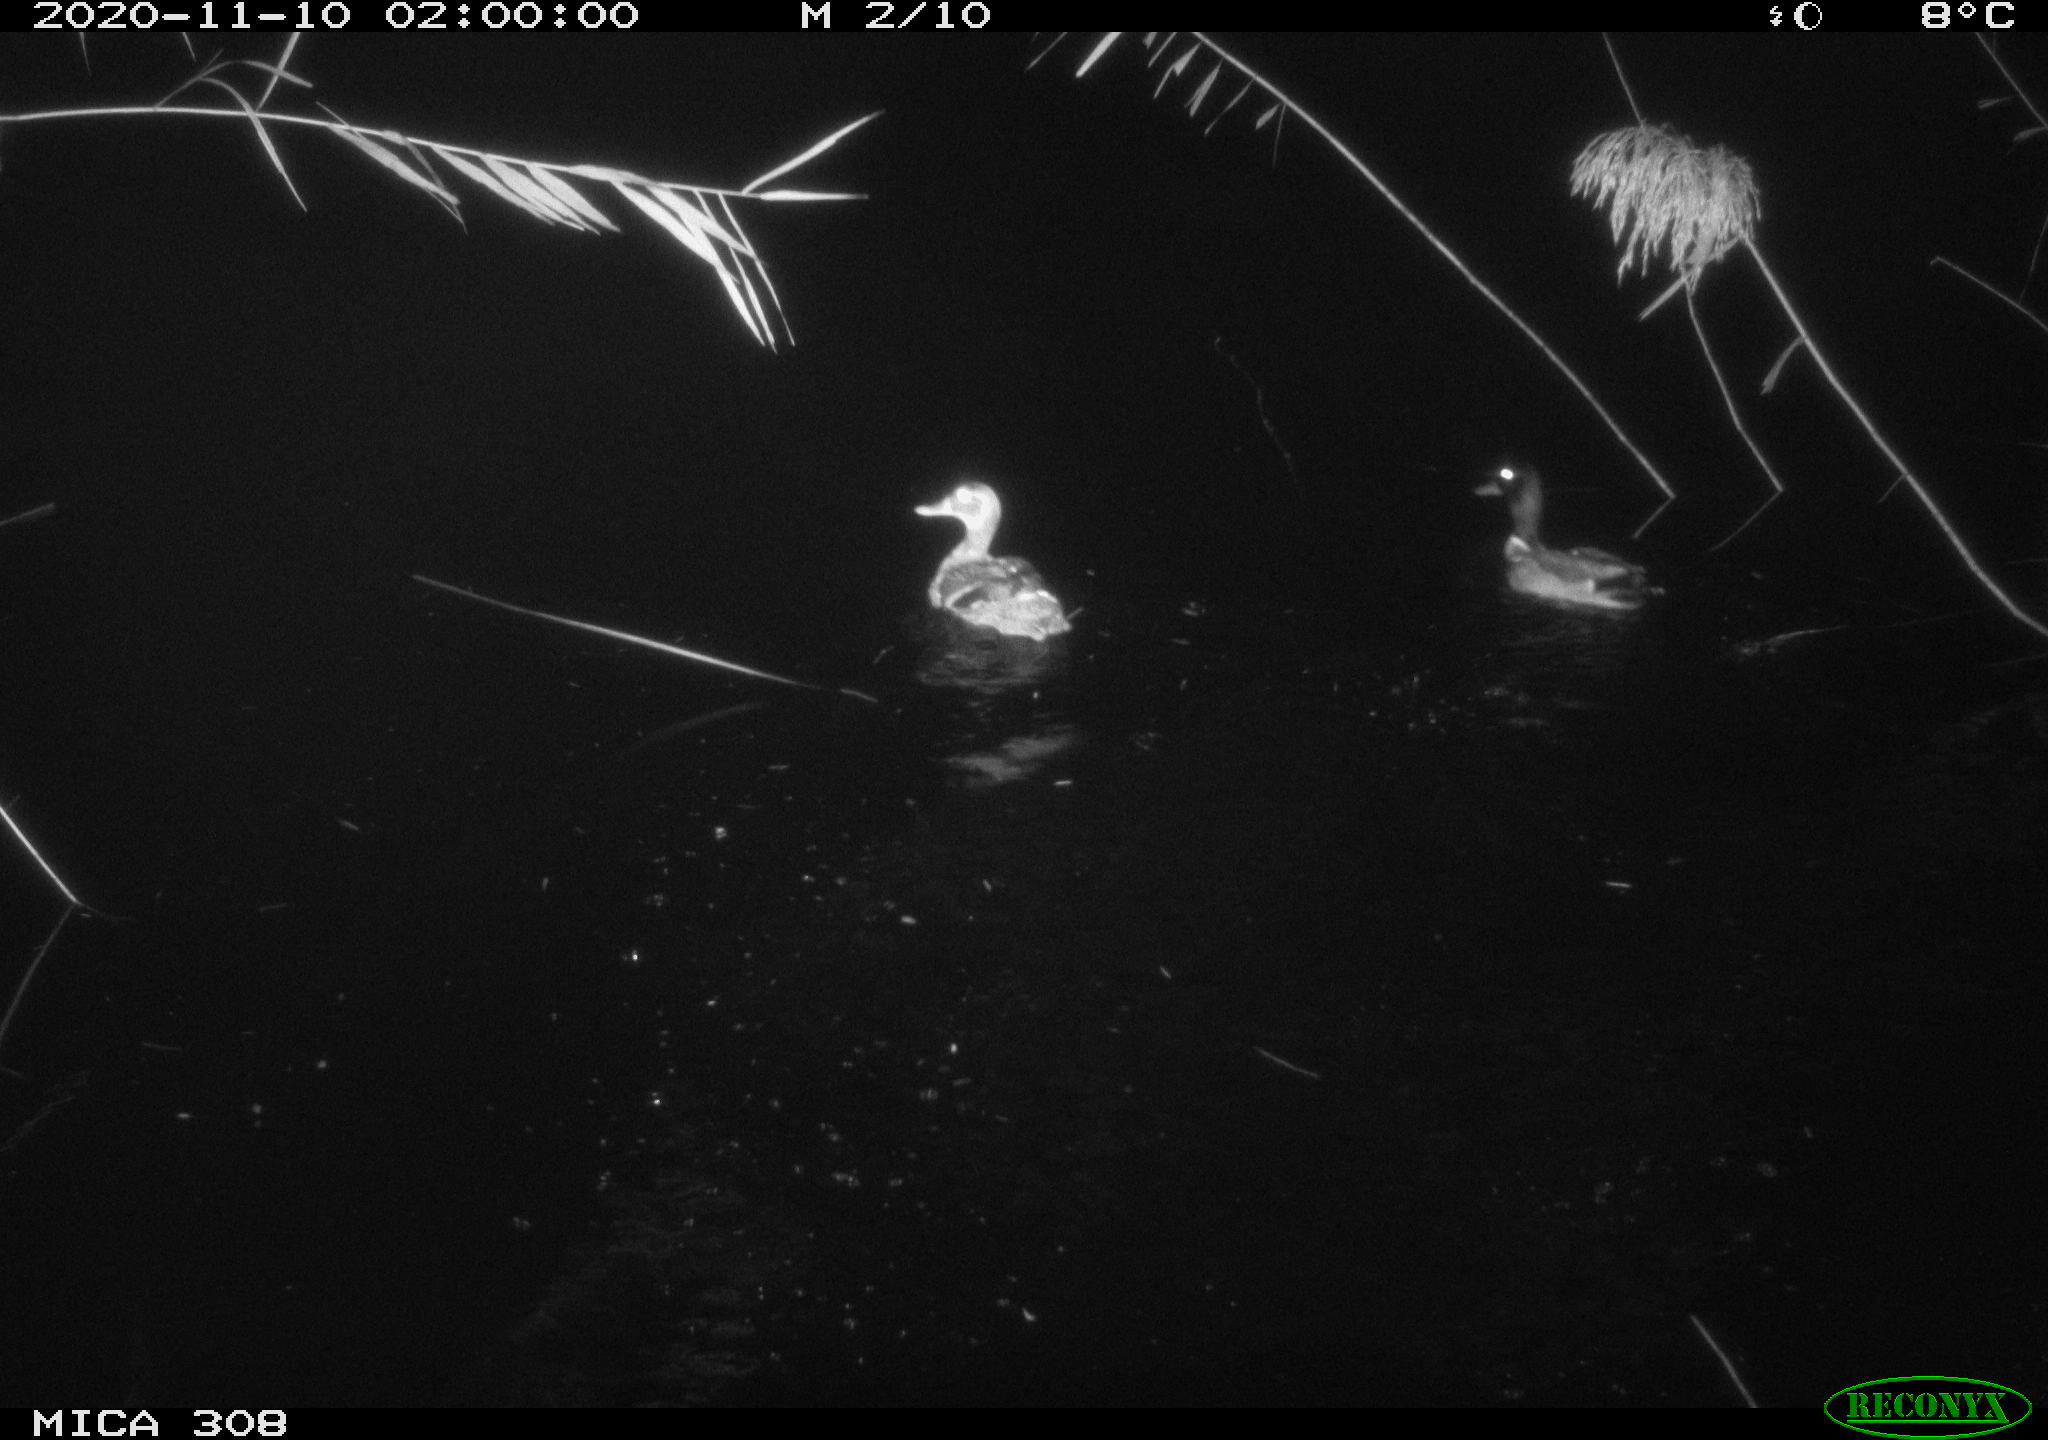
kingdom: Animalia
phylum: Chordata
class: Aves
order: Anseriformes
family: Anatidae
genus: Anas
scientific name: Anas platyrhynchos
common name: Mallard
